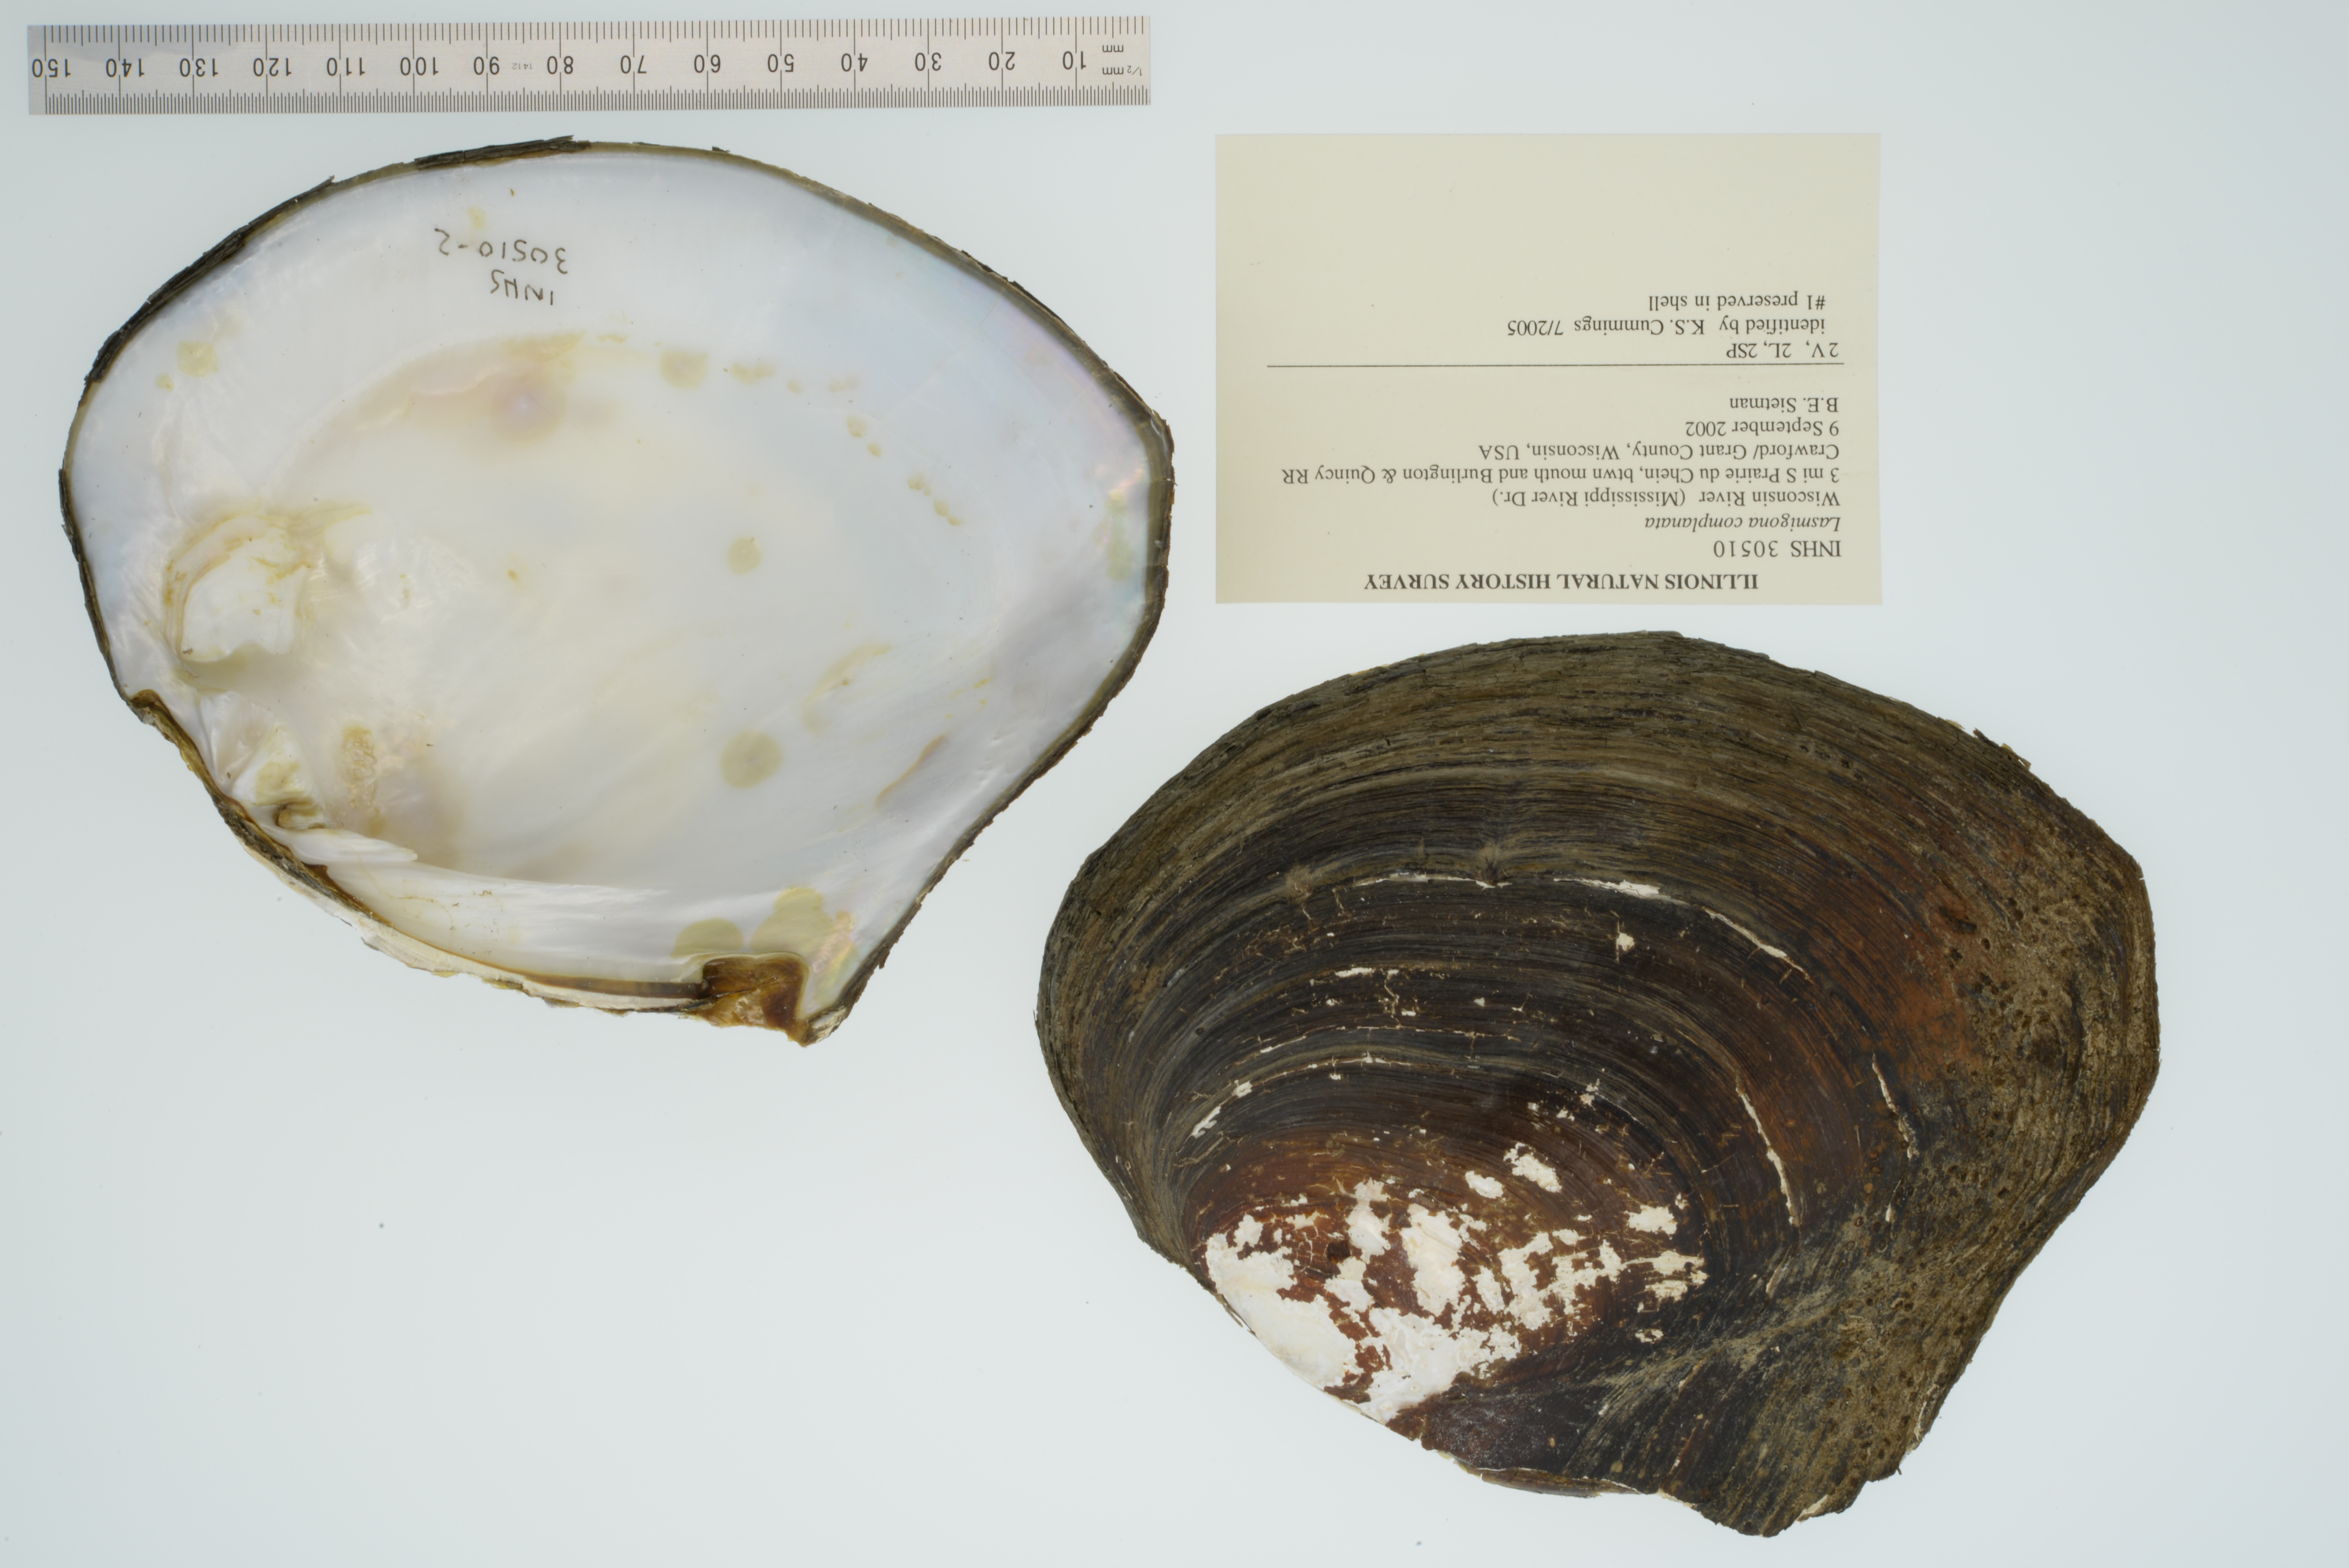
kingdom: Animalia
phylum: Mollusca
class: Bivalvia
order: Unionida
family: Unionidae
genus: Lasmigona
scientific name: Lasmigona complanata
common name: White heelsplitter
